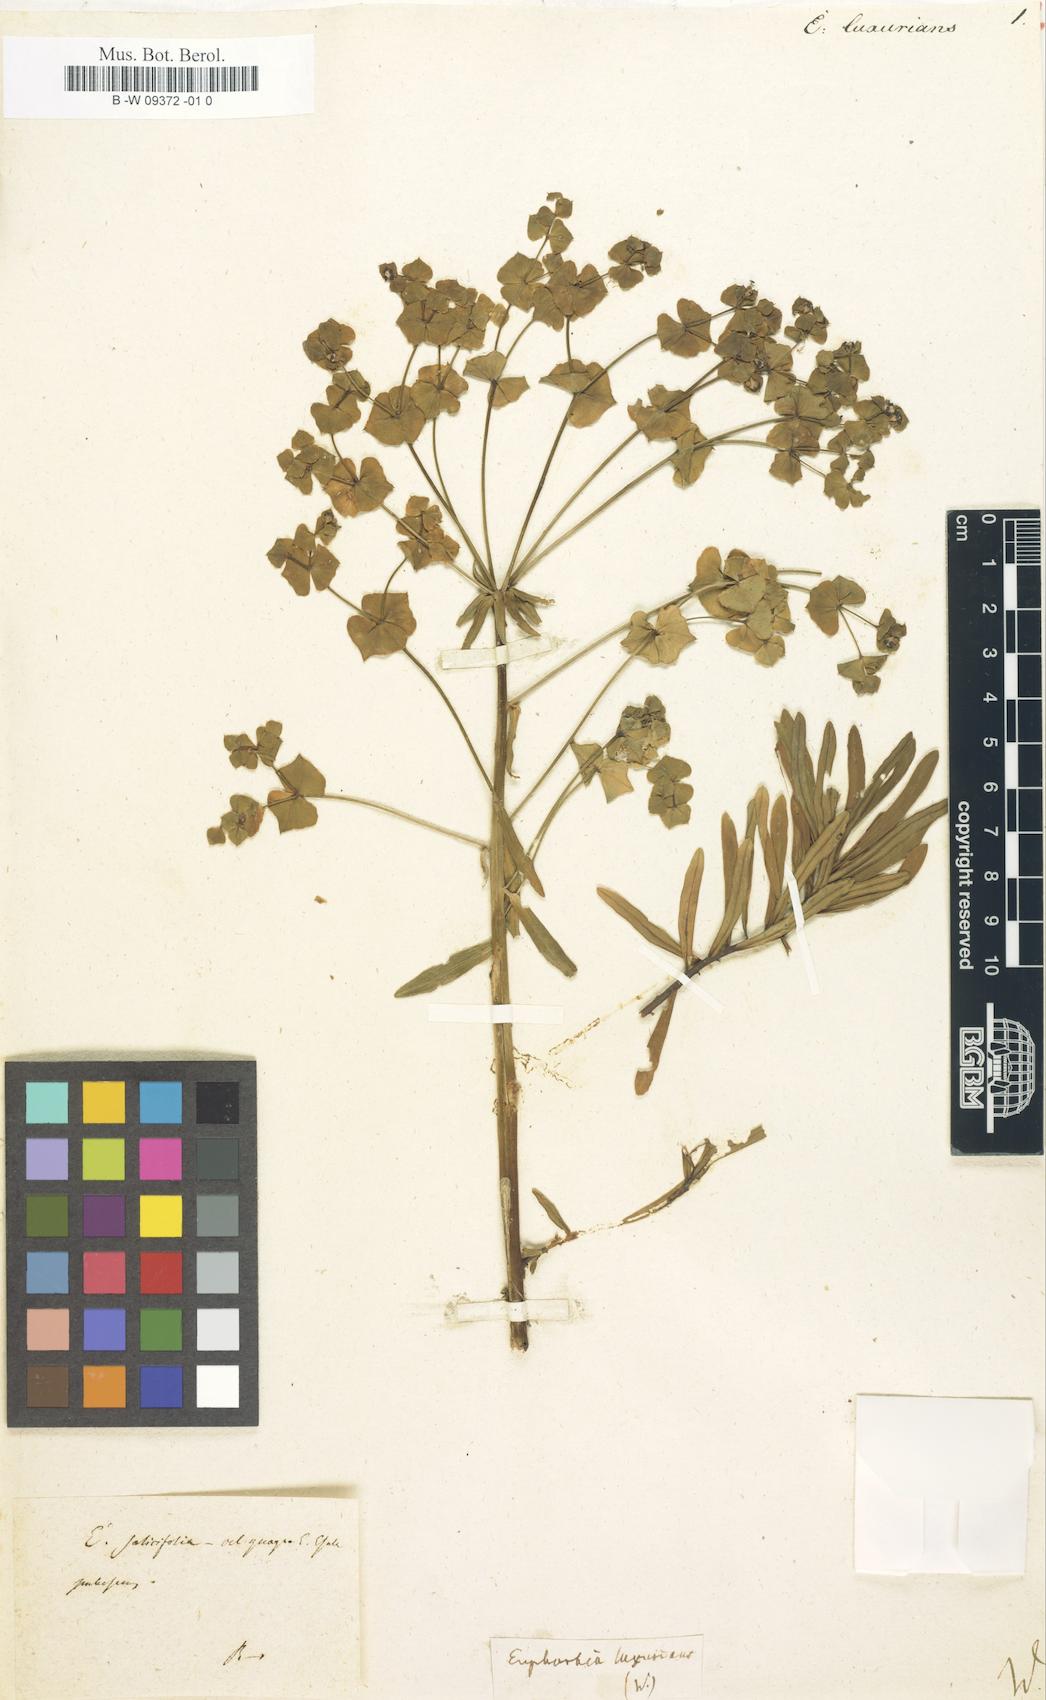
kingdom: Plantae
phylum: Tracheophyta
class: Magnoliopsida
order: Malpighiales
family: Euphorbiaceae
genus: Euphorbia
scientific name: Euphorbia
